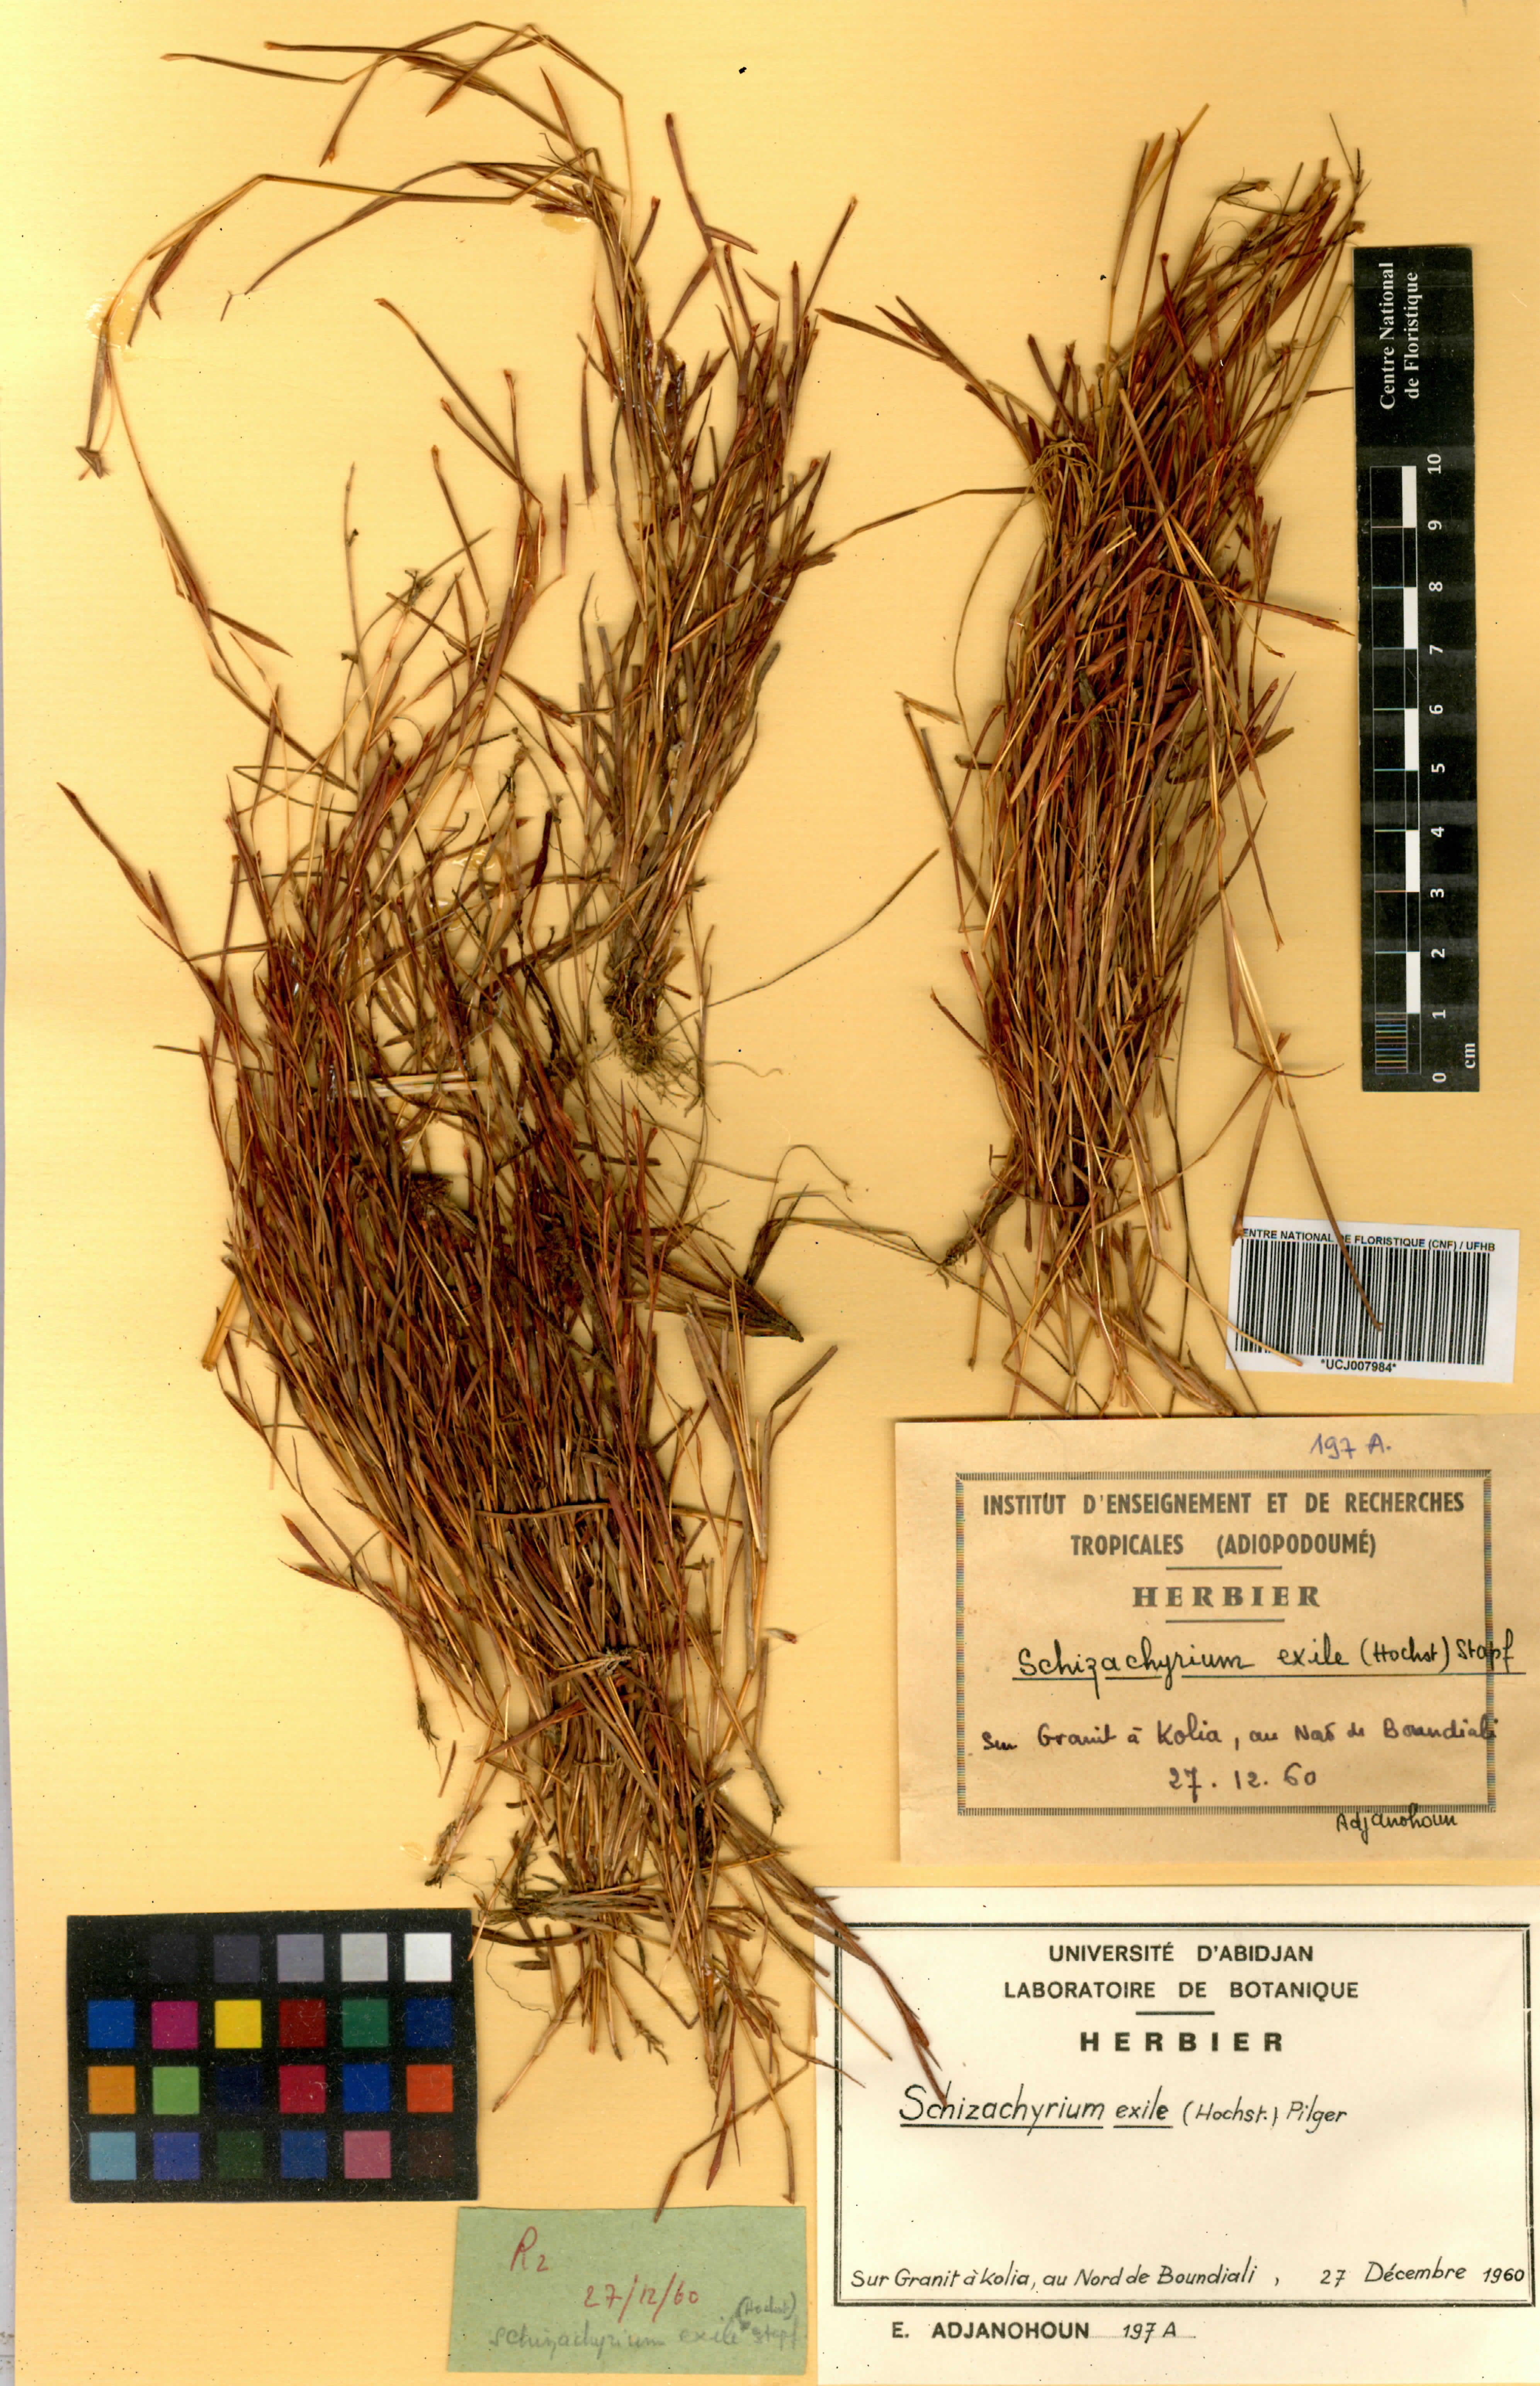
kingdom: Plantae
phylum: Tracheophyta
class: Liliopsida
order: Poales
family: Poaceae
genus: Schizachyrium
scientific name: Schizachyrium exile
